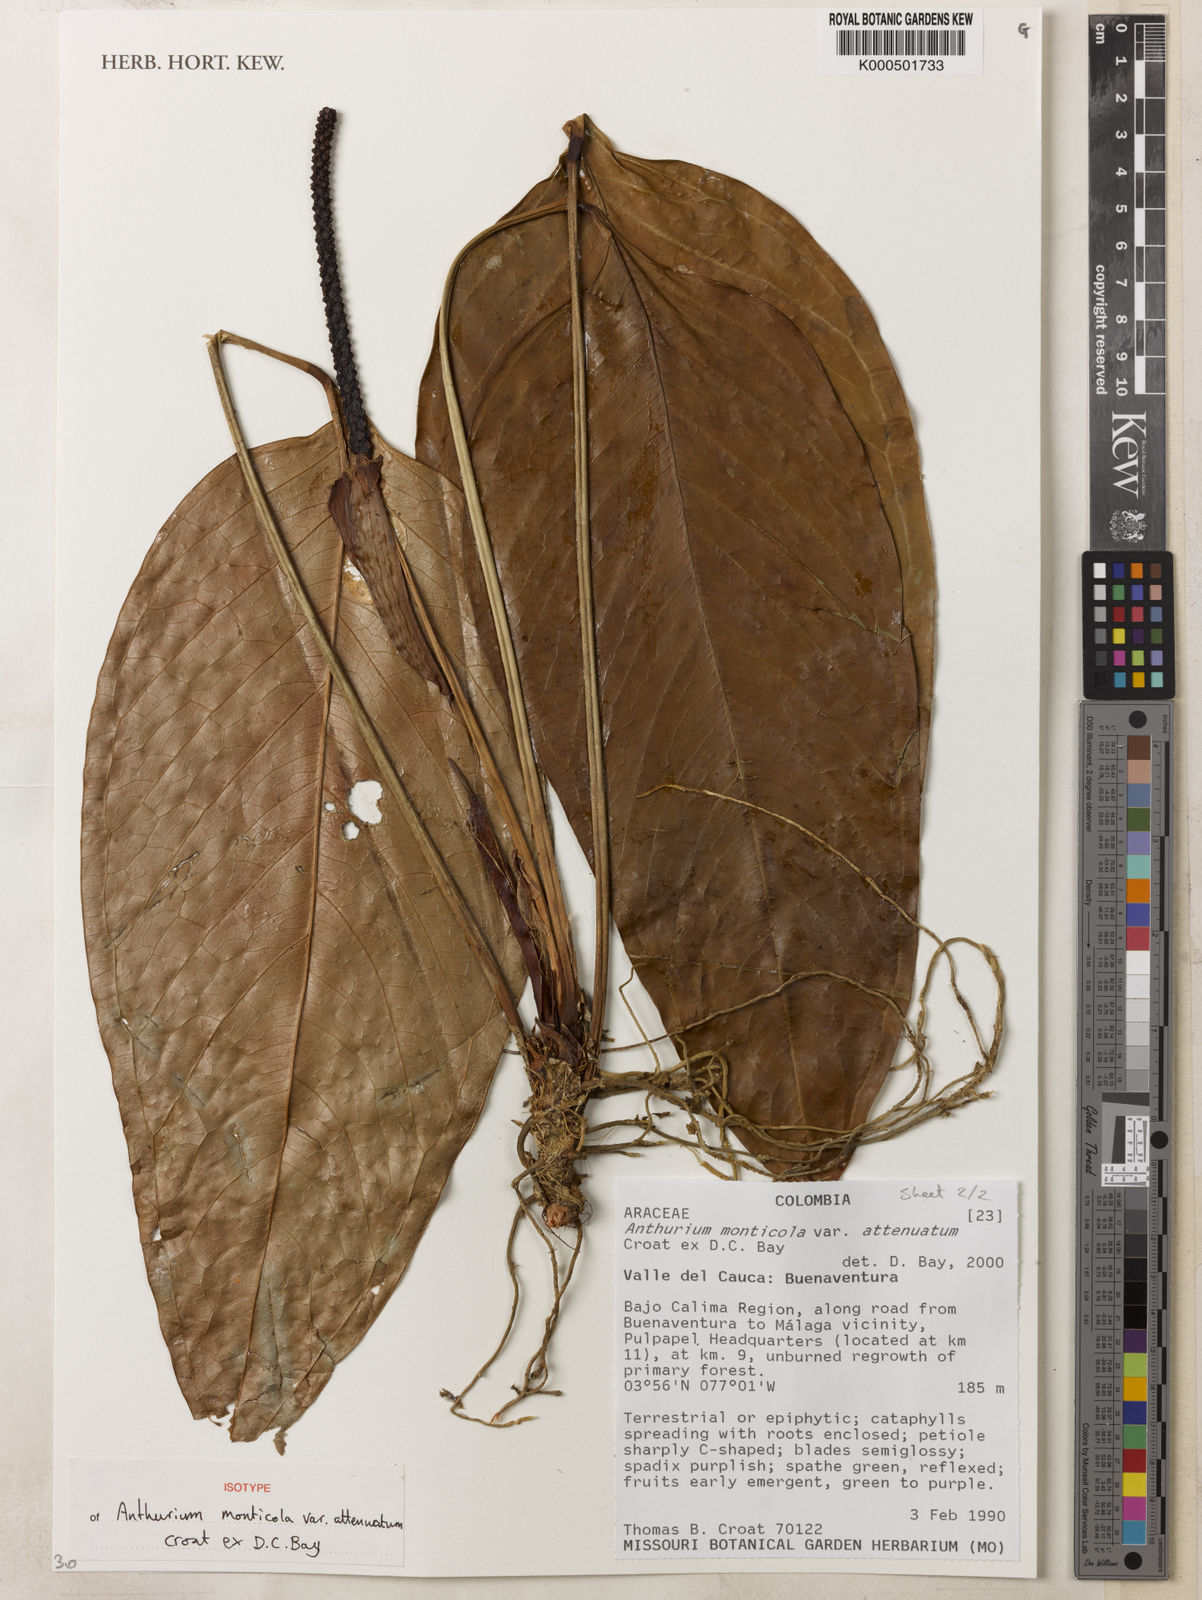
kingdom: Plantae
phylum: Tracheophyta
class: Liliopsida
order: Alismatales
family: Araceae
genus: Anthurium
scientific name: Anthurium monticola
